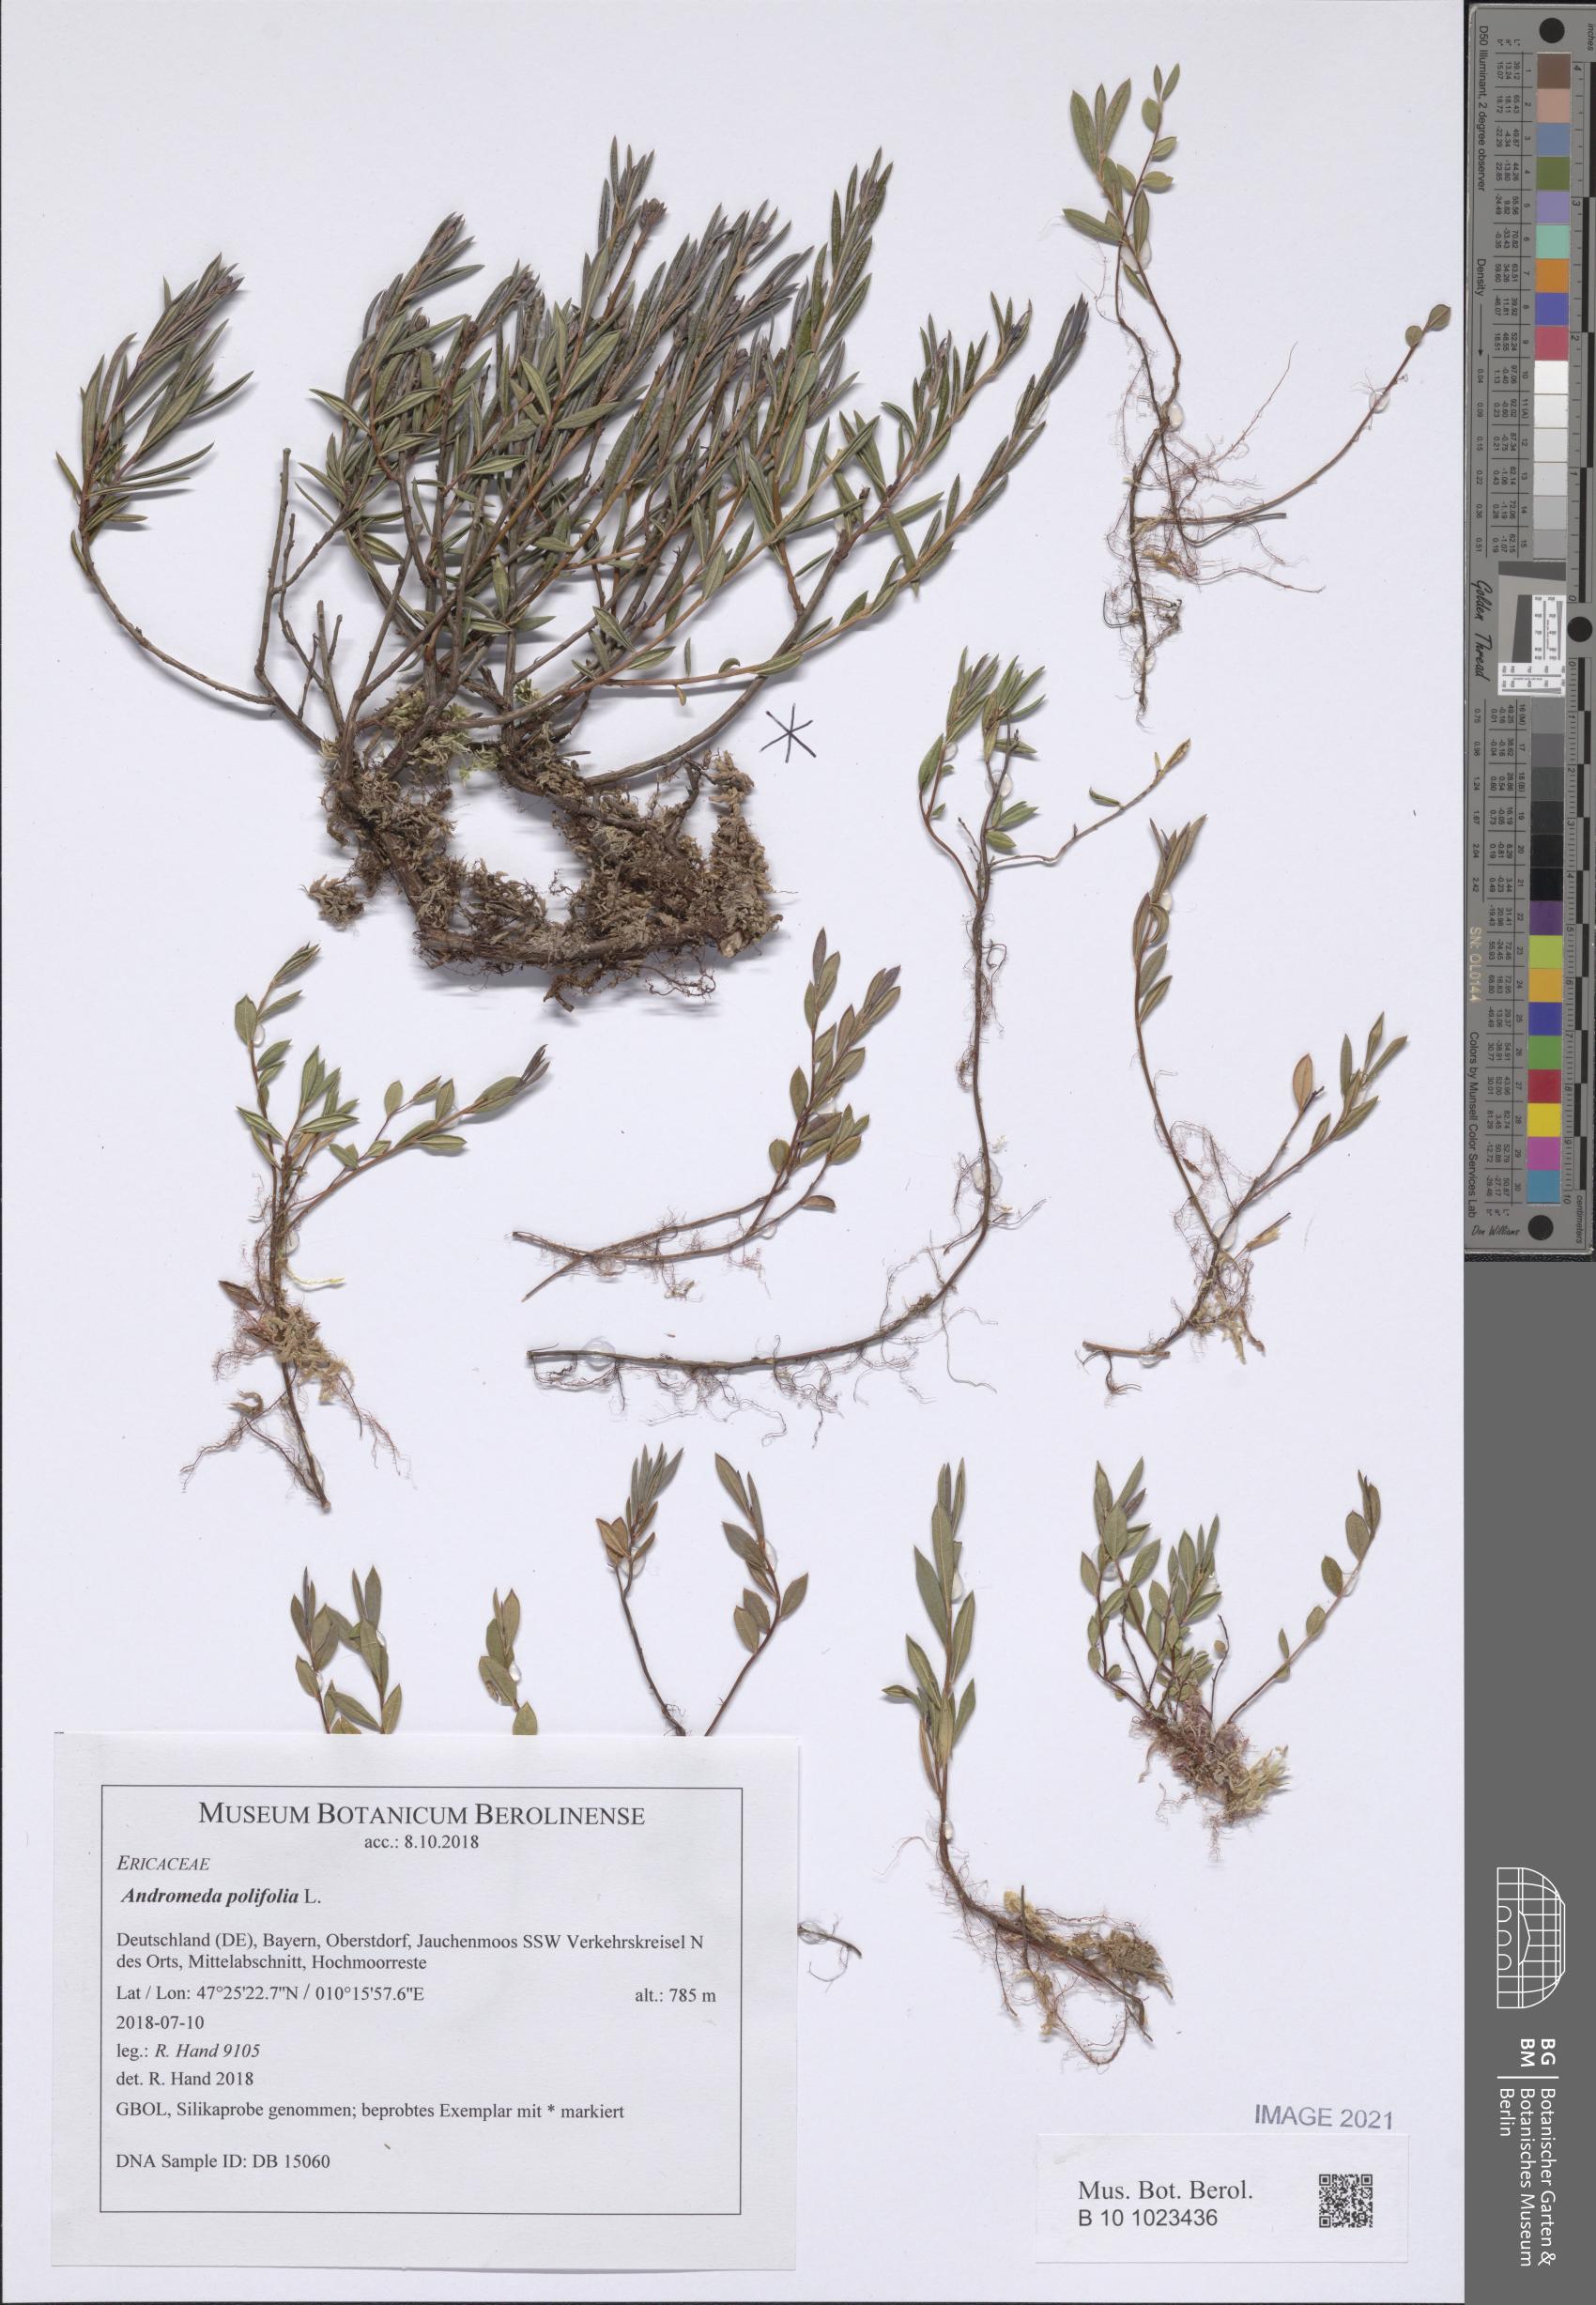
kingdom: Plantae
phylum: Tracheophyta
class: Magnoliopsida
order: Ericales
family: Ericaceae
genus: Andromeda
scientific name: Andromeda polifolia
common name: Bog-rosemary
